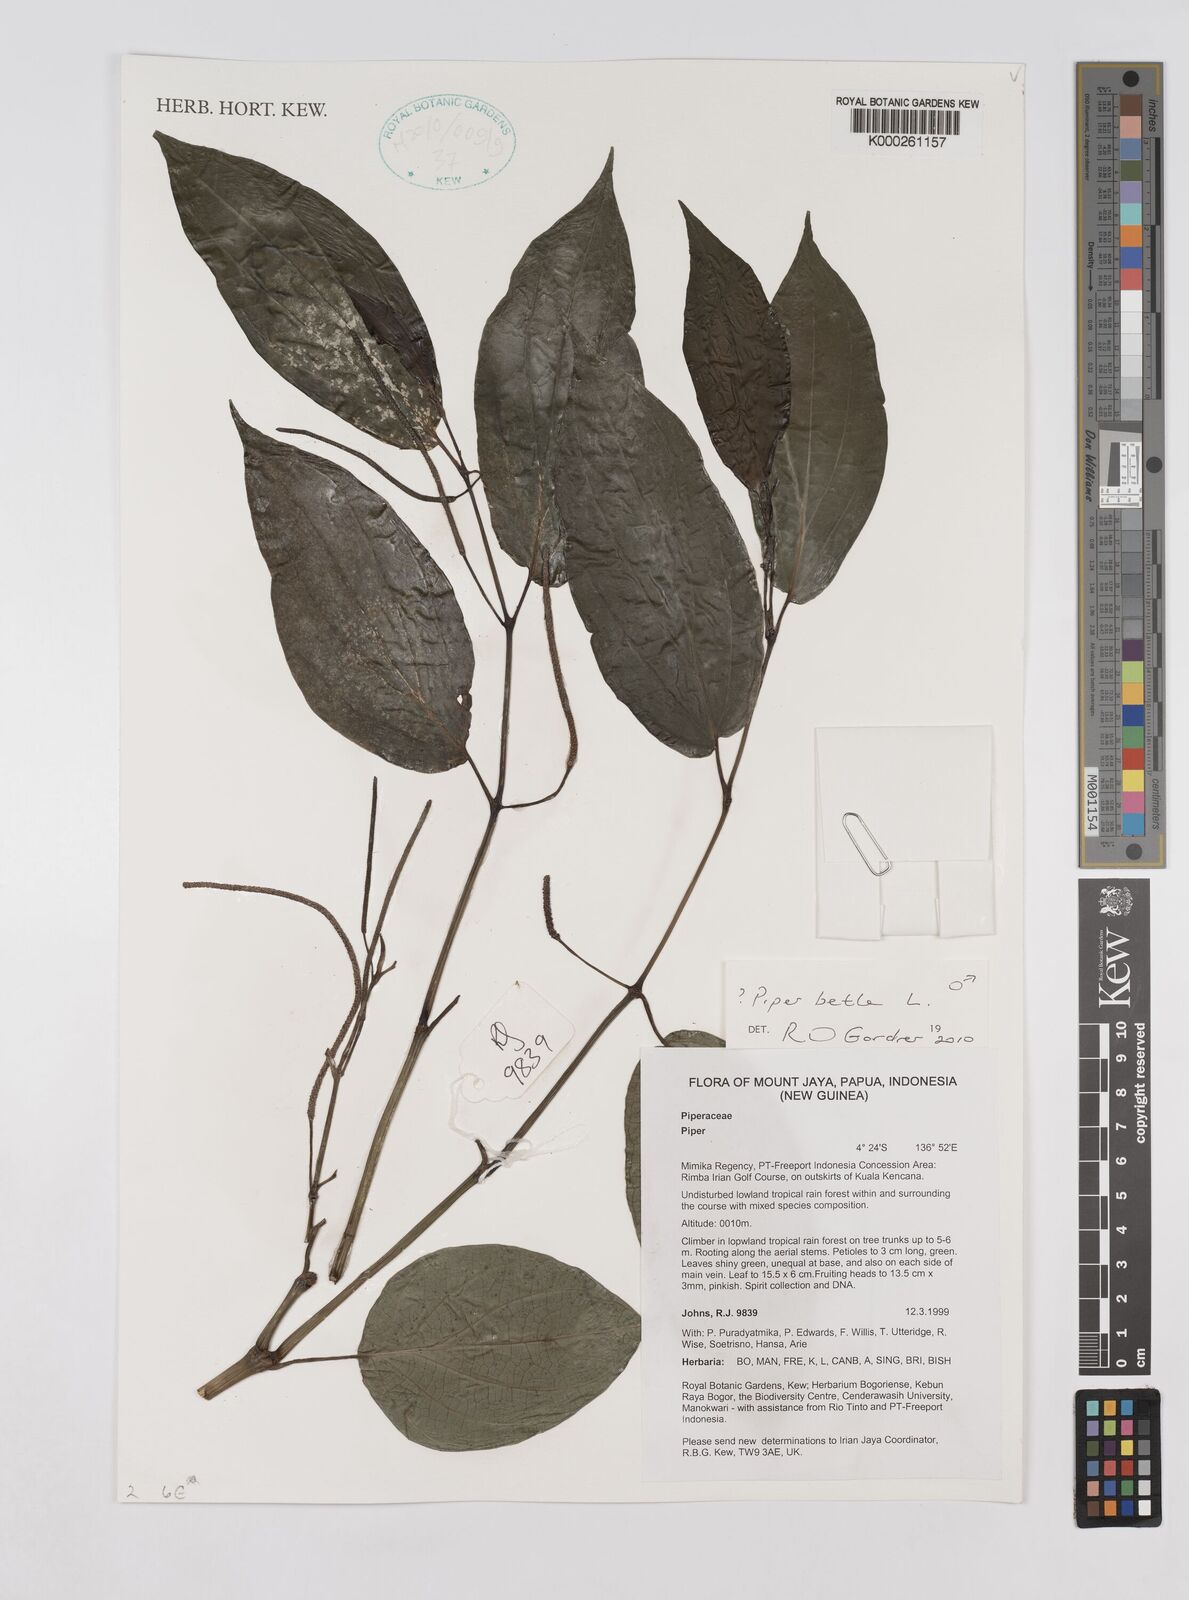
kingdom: Plantae
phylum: Tracheophyta
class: Magnoliopsida
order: Piperales
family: Piperaceae
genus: Piper
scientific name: Piper
